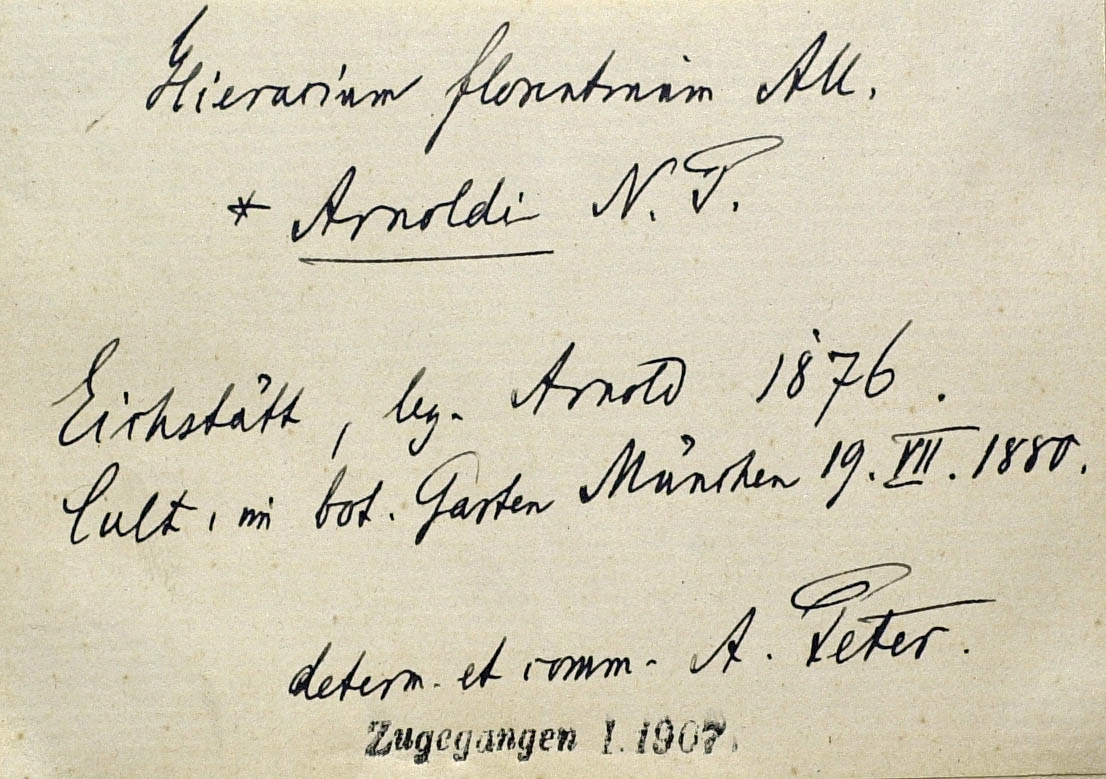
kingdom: Plantae
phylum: Tracheophyta
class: Magnoliopsida
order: Asterales
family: Asteraceae
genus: Pilosella
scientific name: Pilosella piloselloides
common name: Glaucous king-devil
